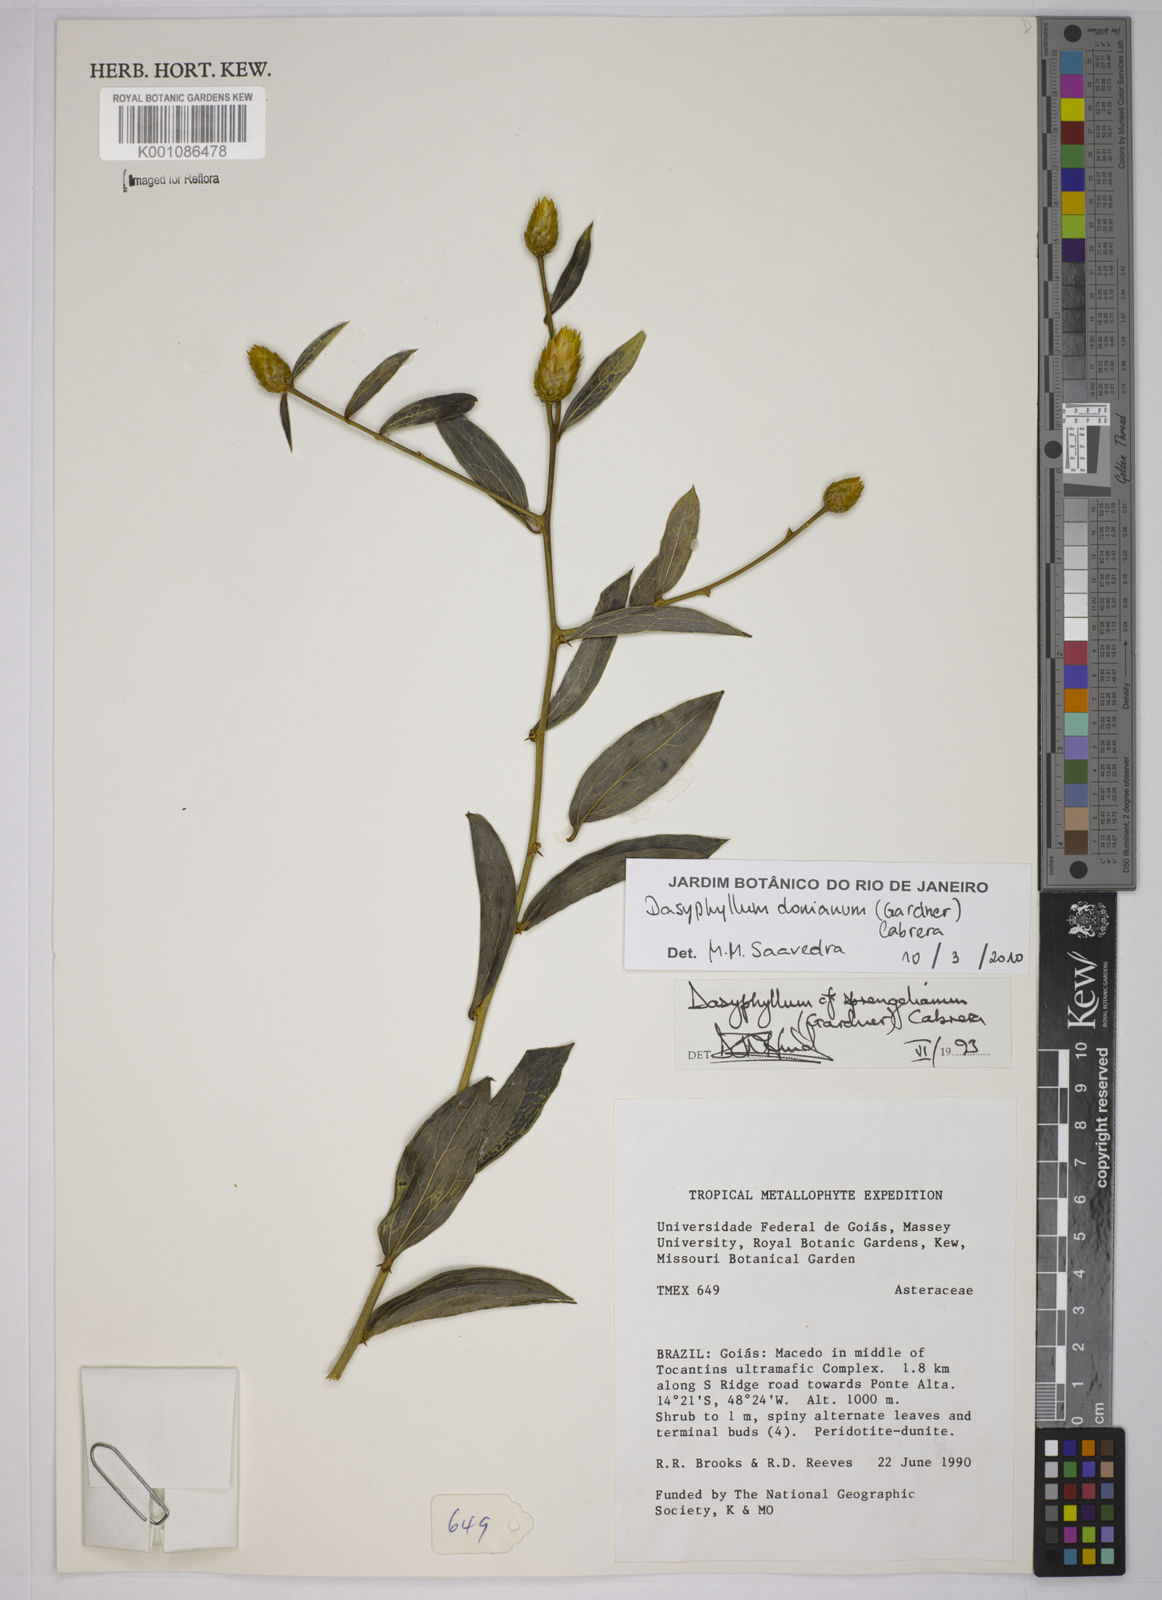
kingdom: Plantae
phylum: Tracheophyta
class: Magnoliopsida
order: Asterales
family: Asteraceae
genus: Dasyphyllum
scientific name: Dasyphyllum donianum
